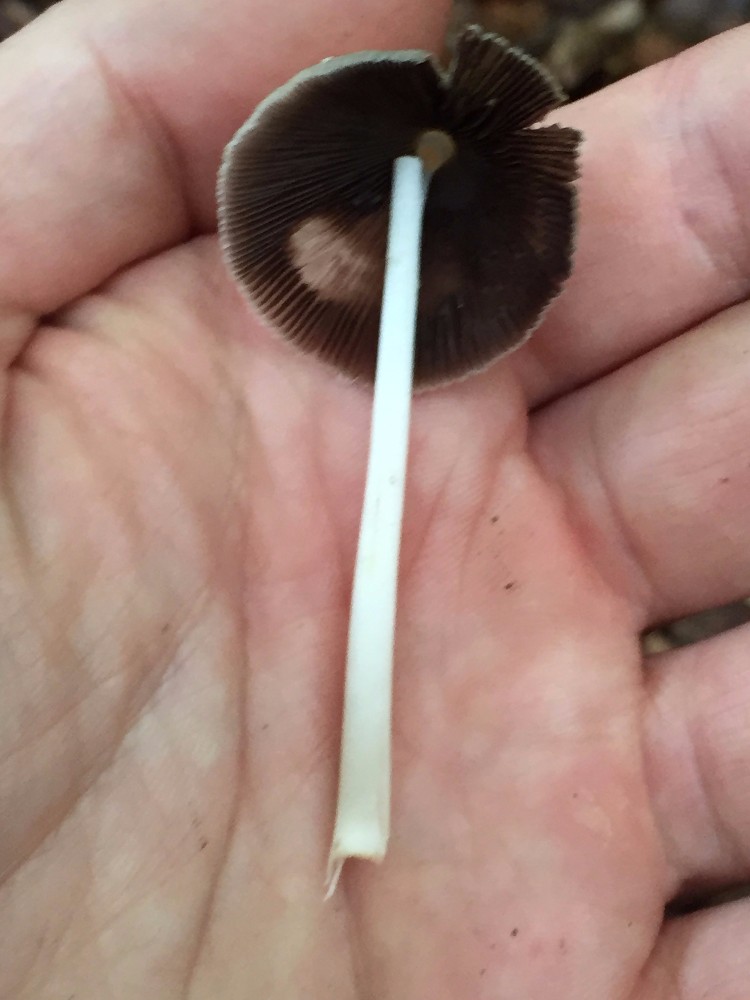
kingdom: Fungi
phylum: Basidiomycota
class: Agaricomycetes
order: Agaricales
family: Psathyrellaceae
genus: Coprinellus
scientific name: Coprinellus
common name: blækhat
